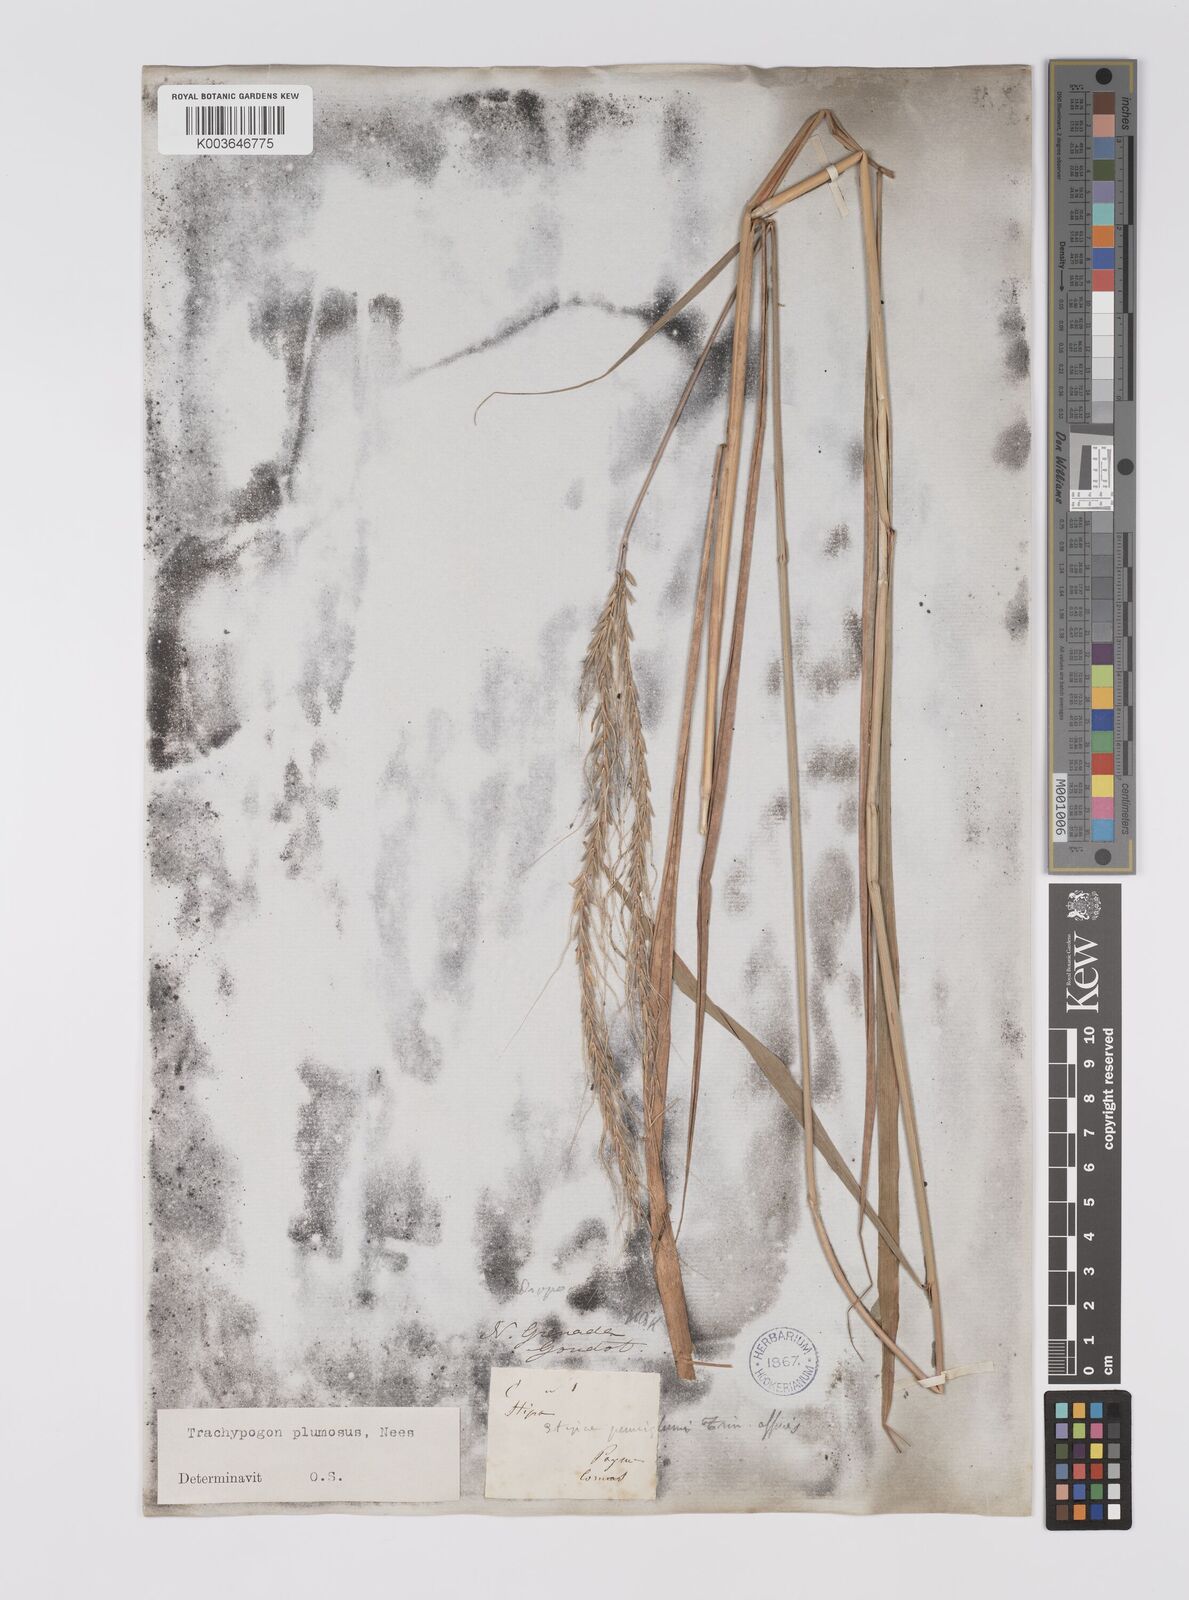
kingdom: Plantae
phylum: Tracheophyta
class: Liliopsida
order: Poales
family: Poaceae
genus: Trachypogon
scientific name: Trachypogon spicatus
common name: Crinkle-awn
